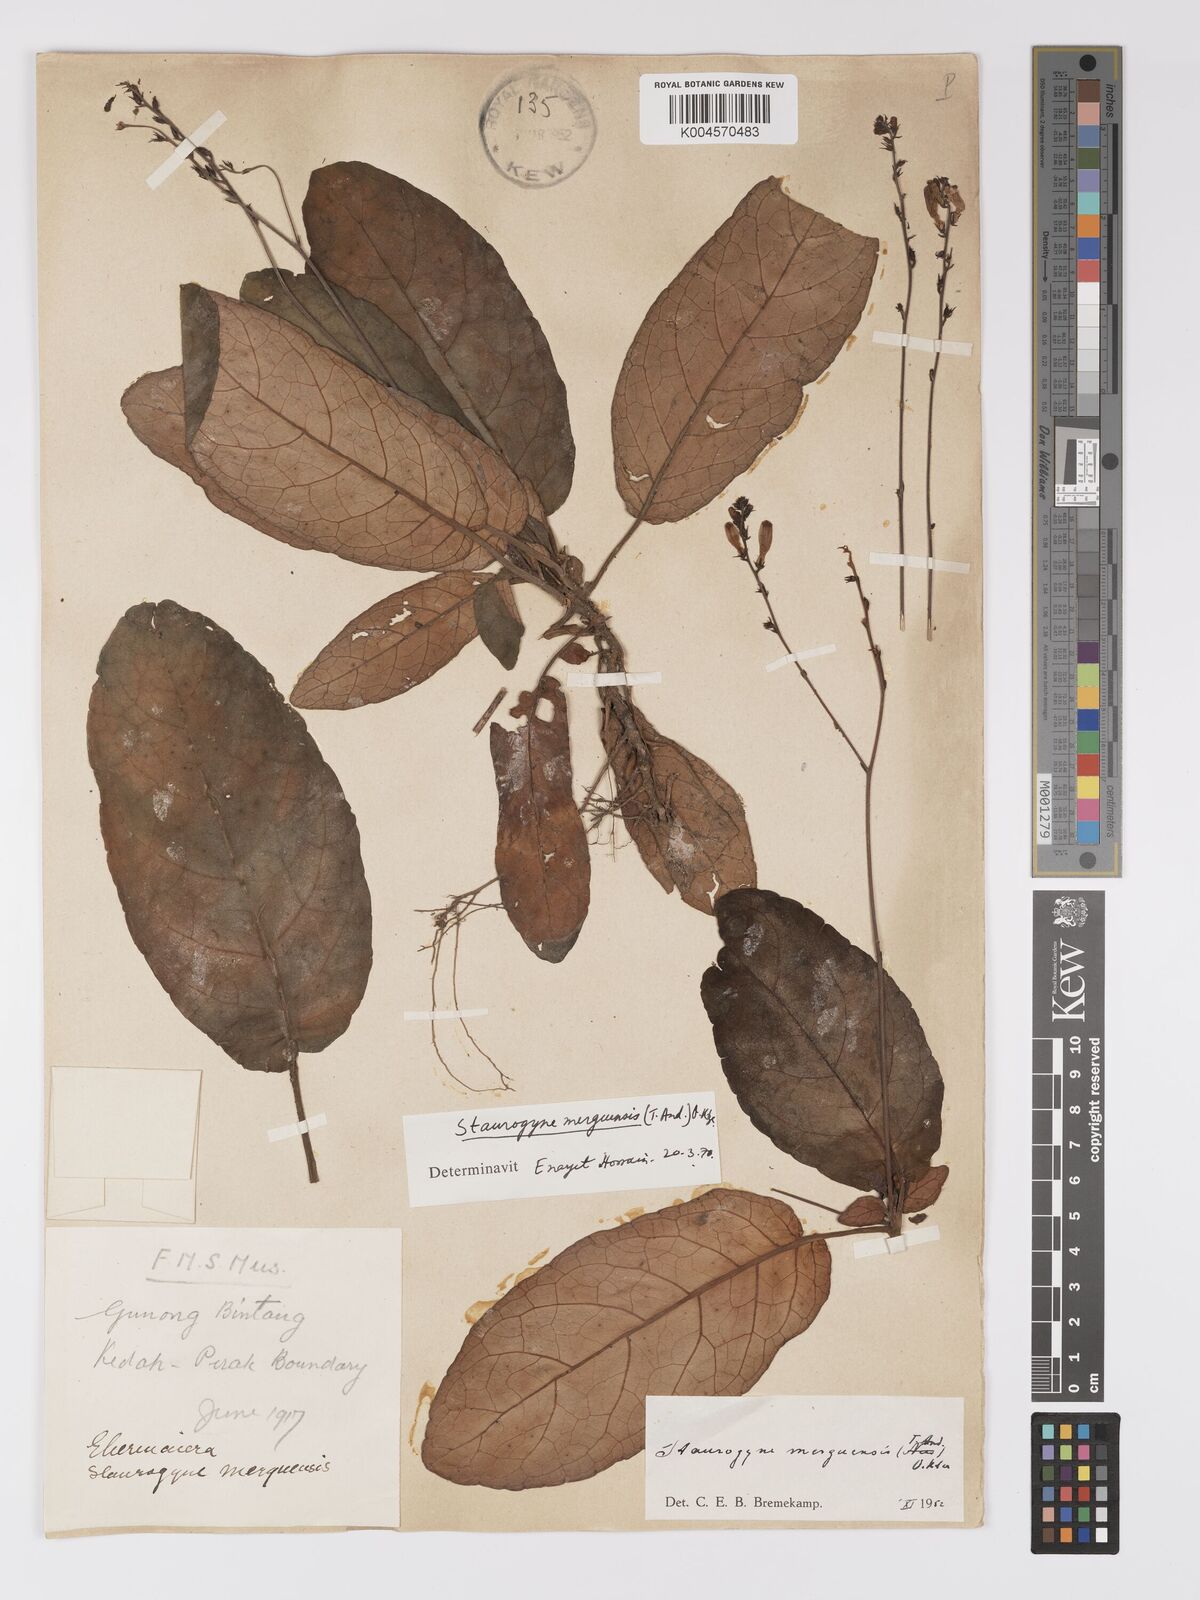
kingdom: Plantae
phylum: Tracheophyta
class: Magnoliopsida
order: Lamiales
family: Acanthaceae
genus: Staurogyne
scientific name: Staurogyne merguensis
